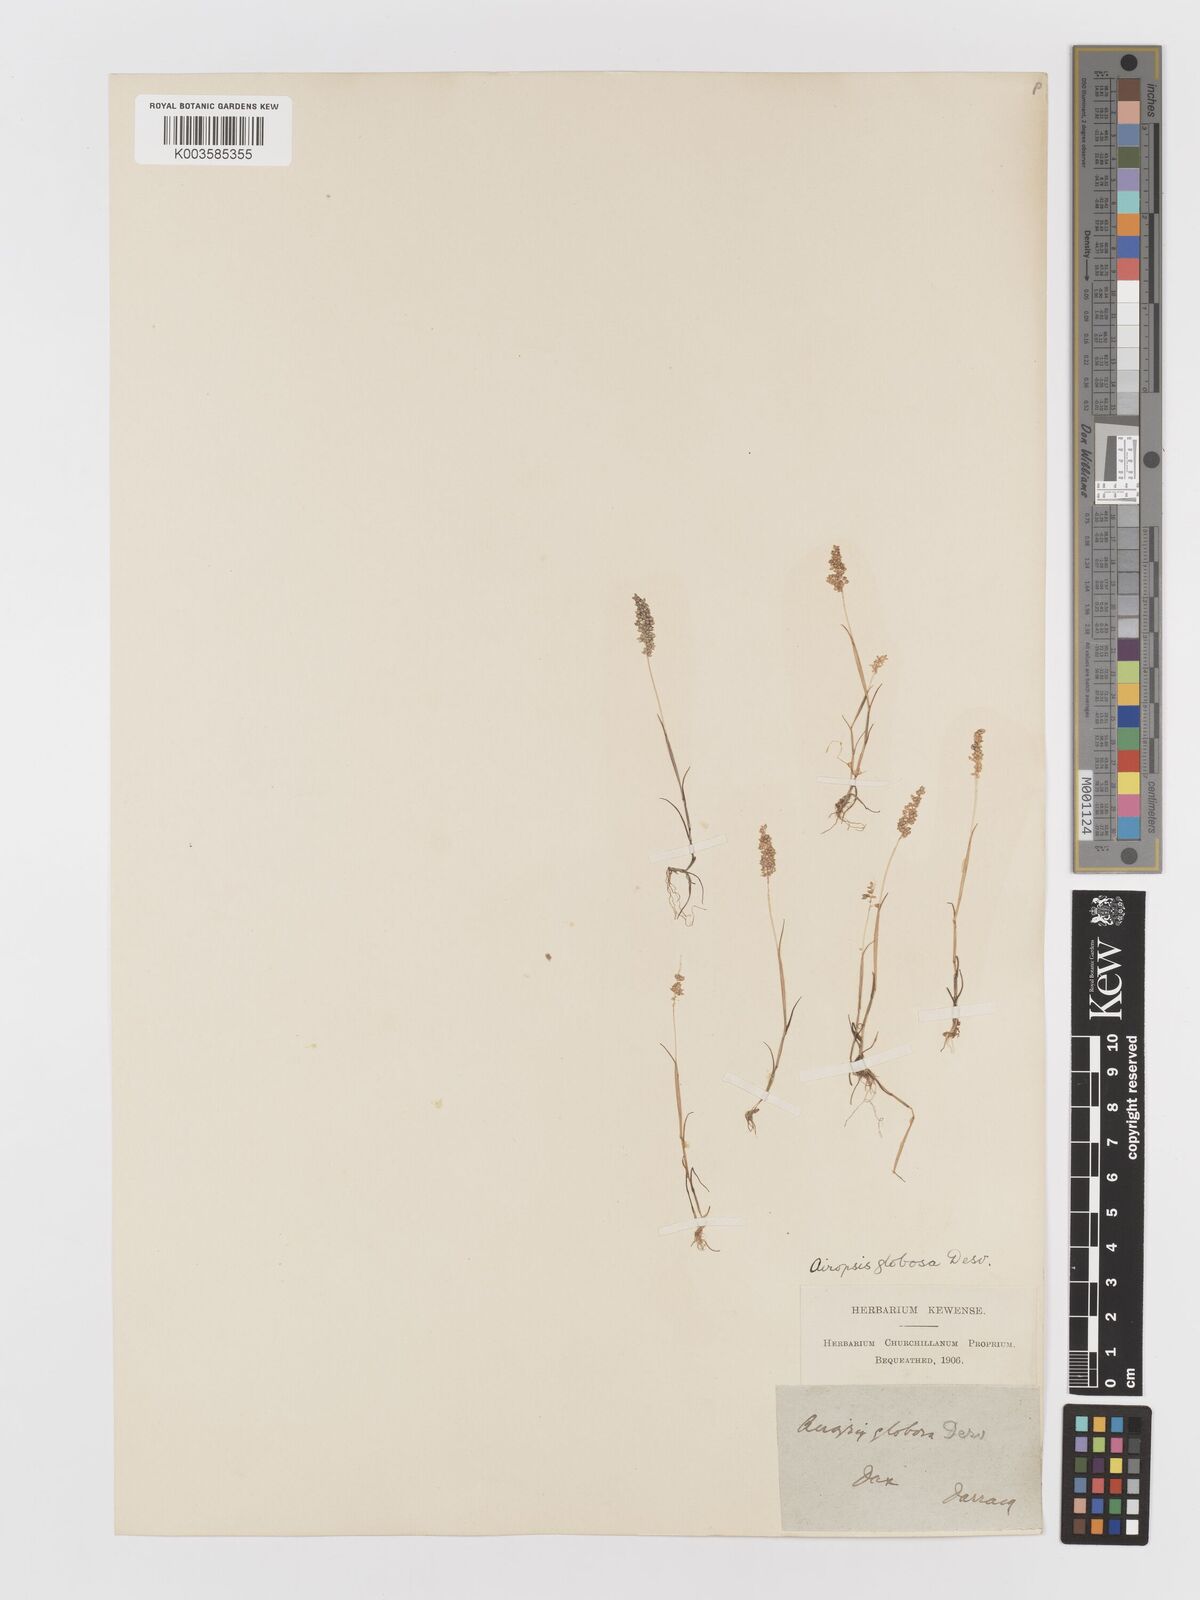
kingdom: Plantae
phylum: Tracheophyta
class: Liliopsida
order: Poales
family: Poaceae
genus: Airopsis
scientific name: Airopsis tenella
